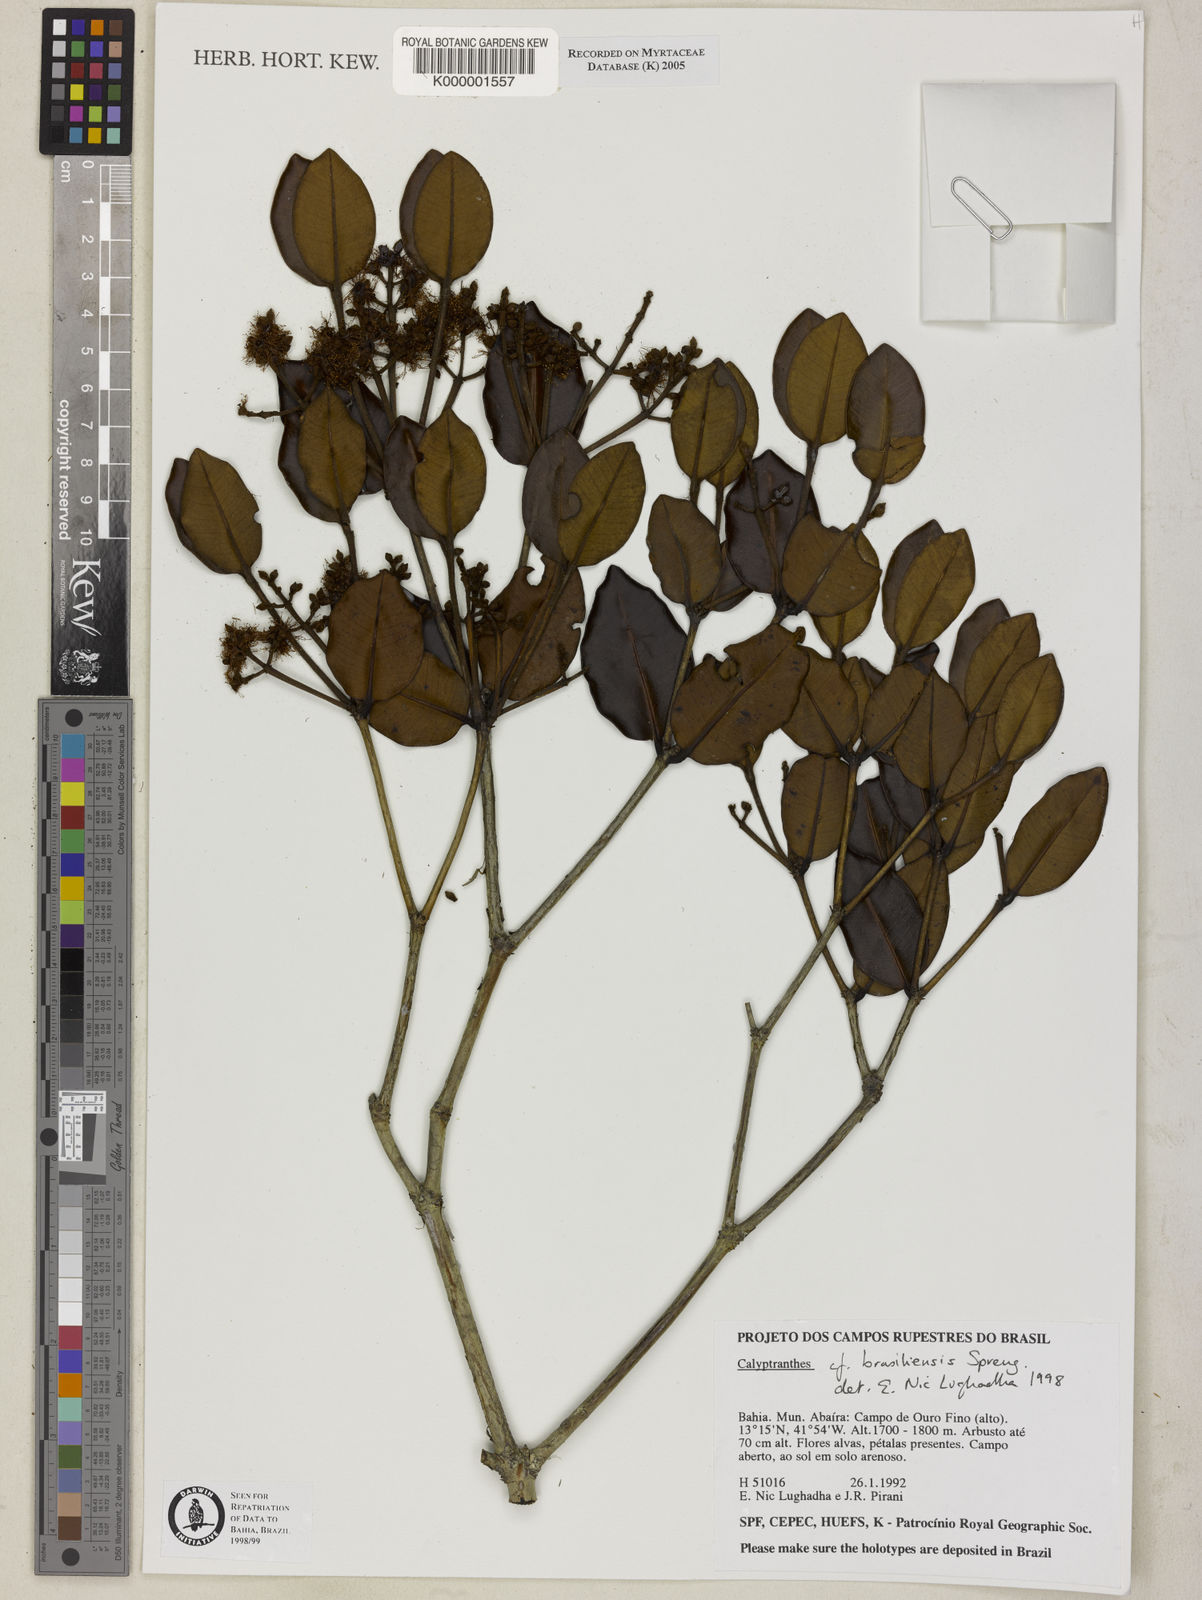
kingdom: Plantae
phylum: Tracheophyta
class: Magnoliopsida
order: Myrtales
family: Myrtaceae
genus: Myrcia
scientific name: Myrcia neobrasiliensis
